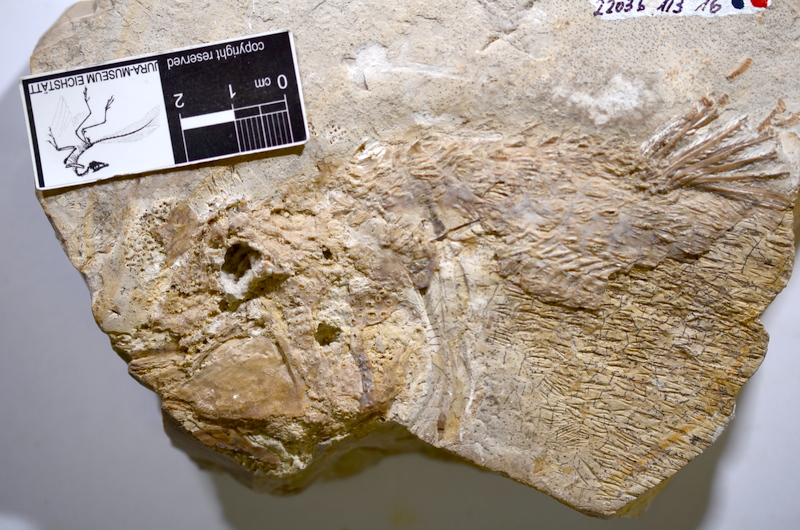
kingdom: Animalia
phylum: Chordata
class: Coelacanthi
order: Coelacanthiformes
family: Latimeroidea
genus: Macropoma
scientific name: Macropoma willemoesii
